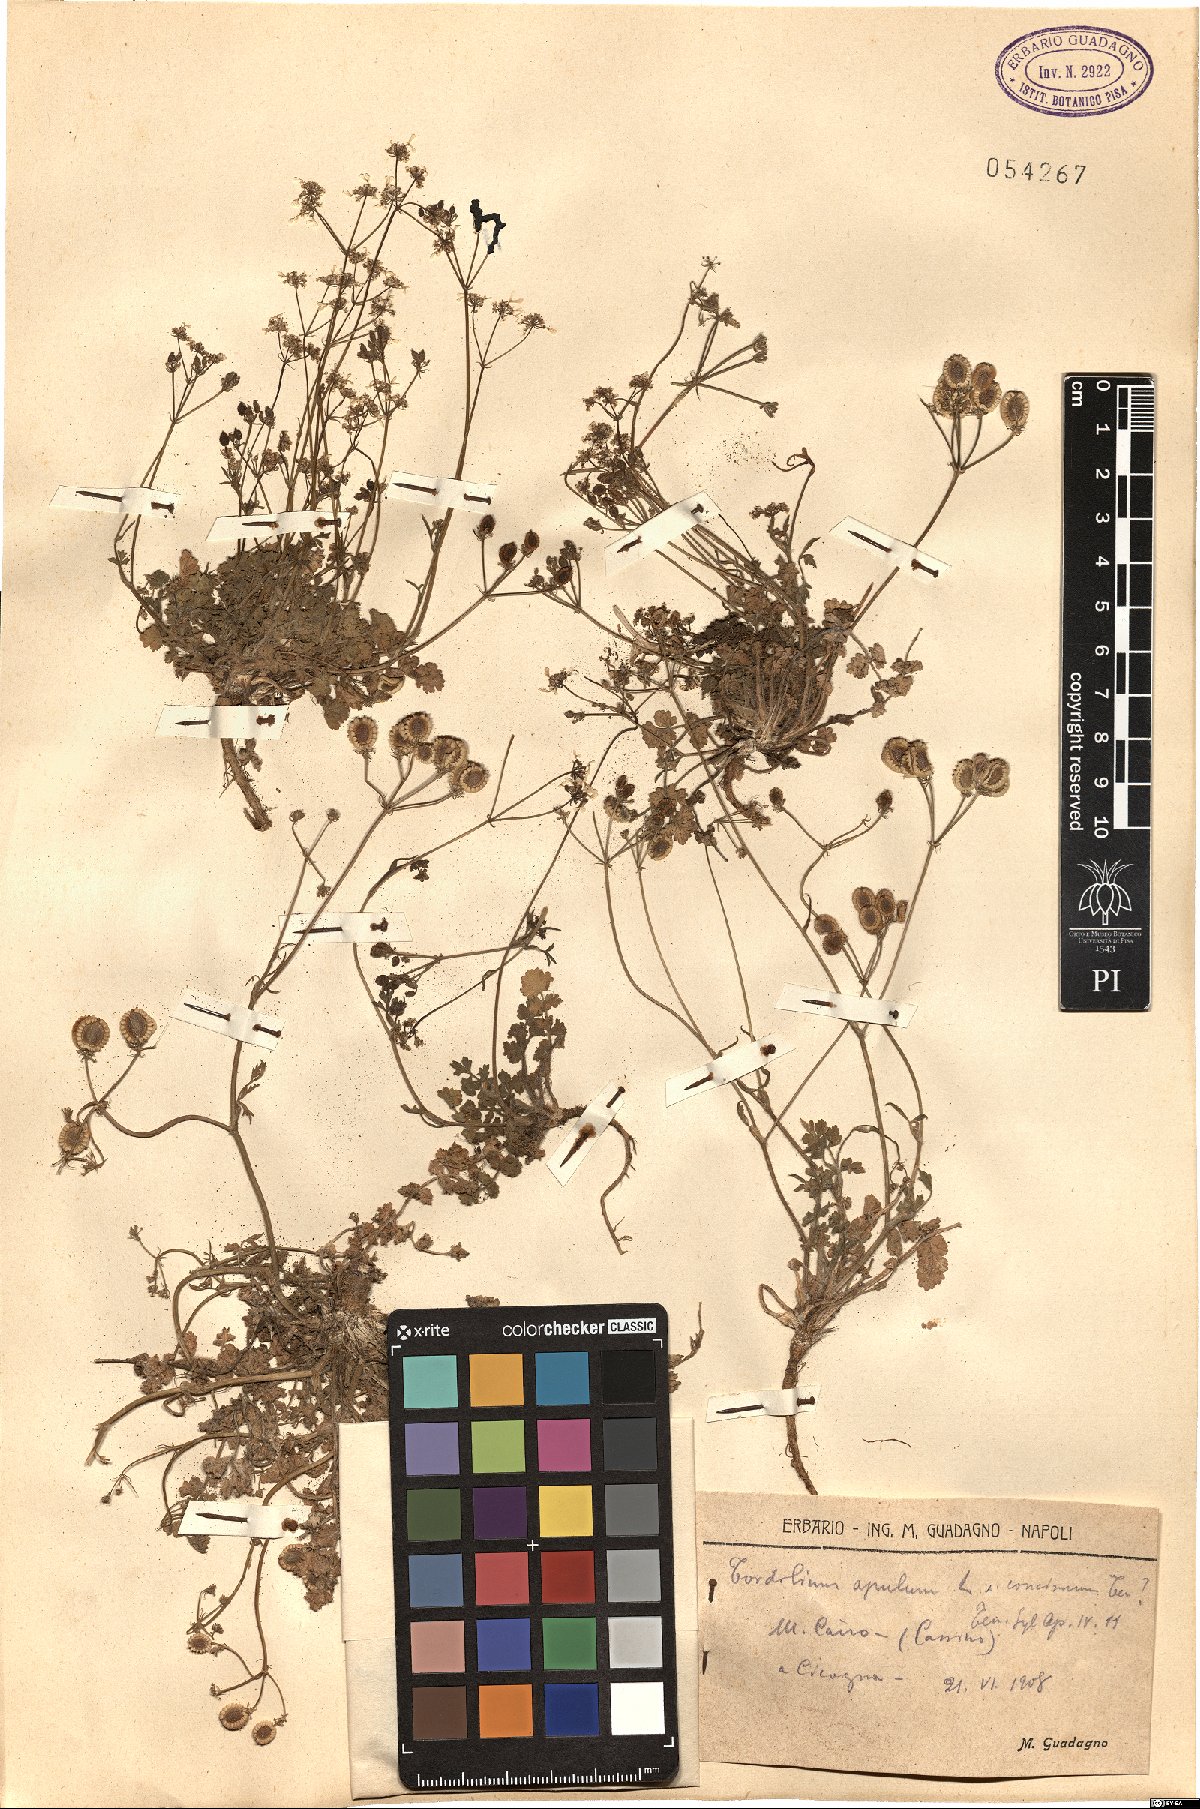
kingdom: Plantae
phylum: Tracheophyta
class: Magnoliopsida
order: Apiales
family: Apiaceae
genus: Tordylium
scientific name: Tordylium apulum
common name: Mediterranean hartwort
